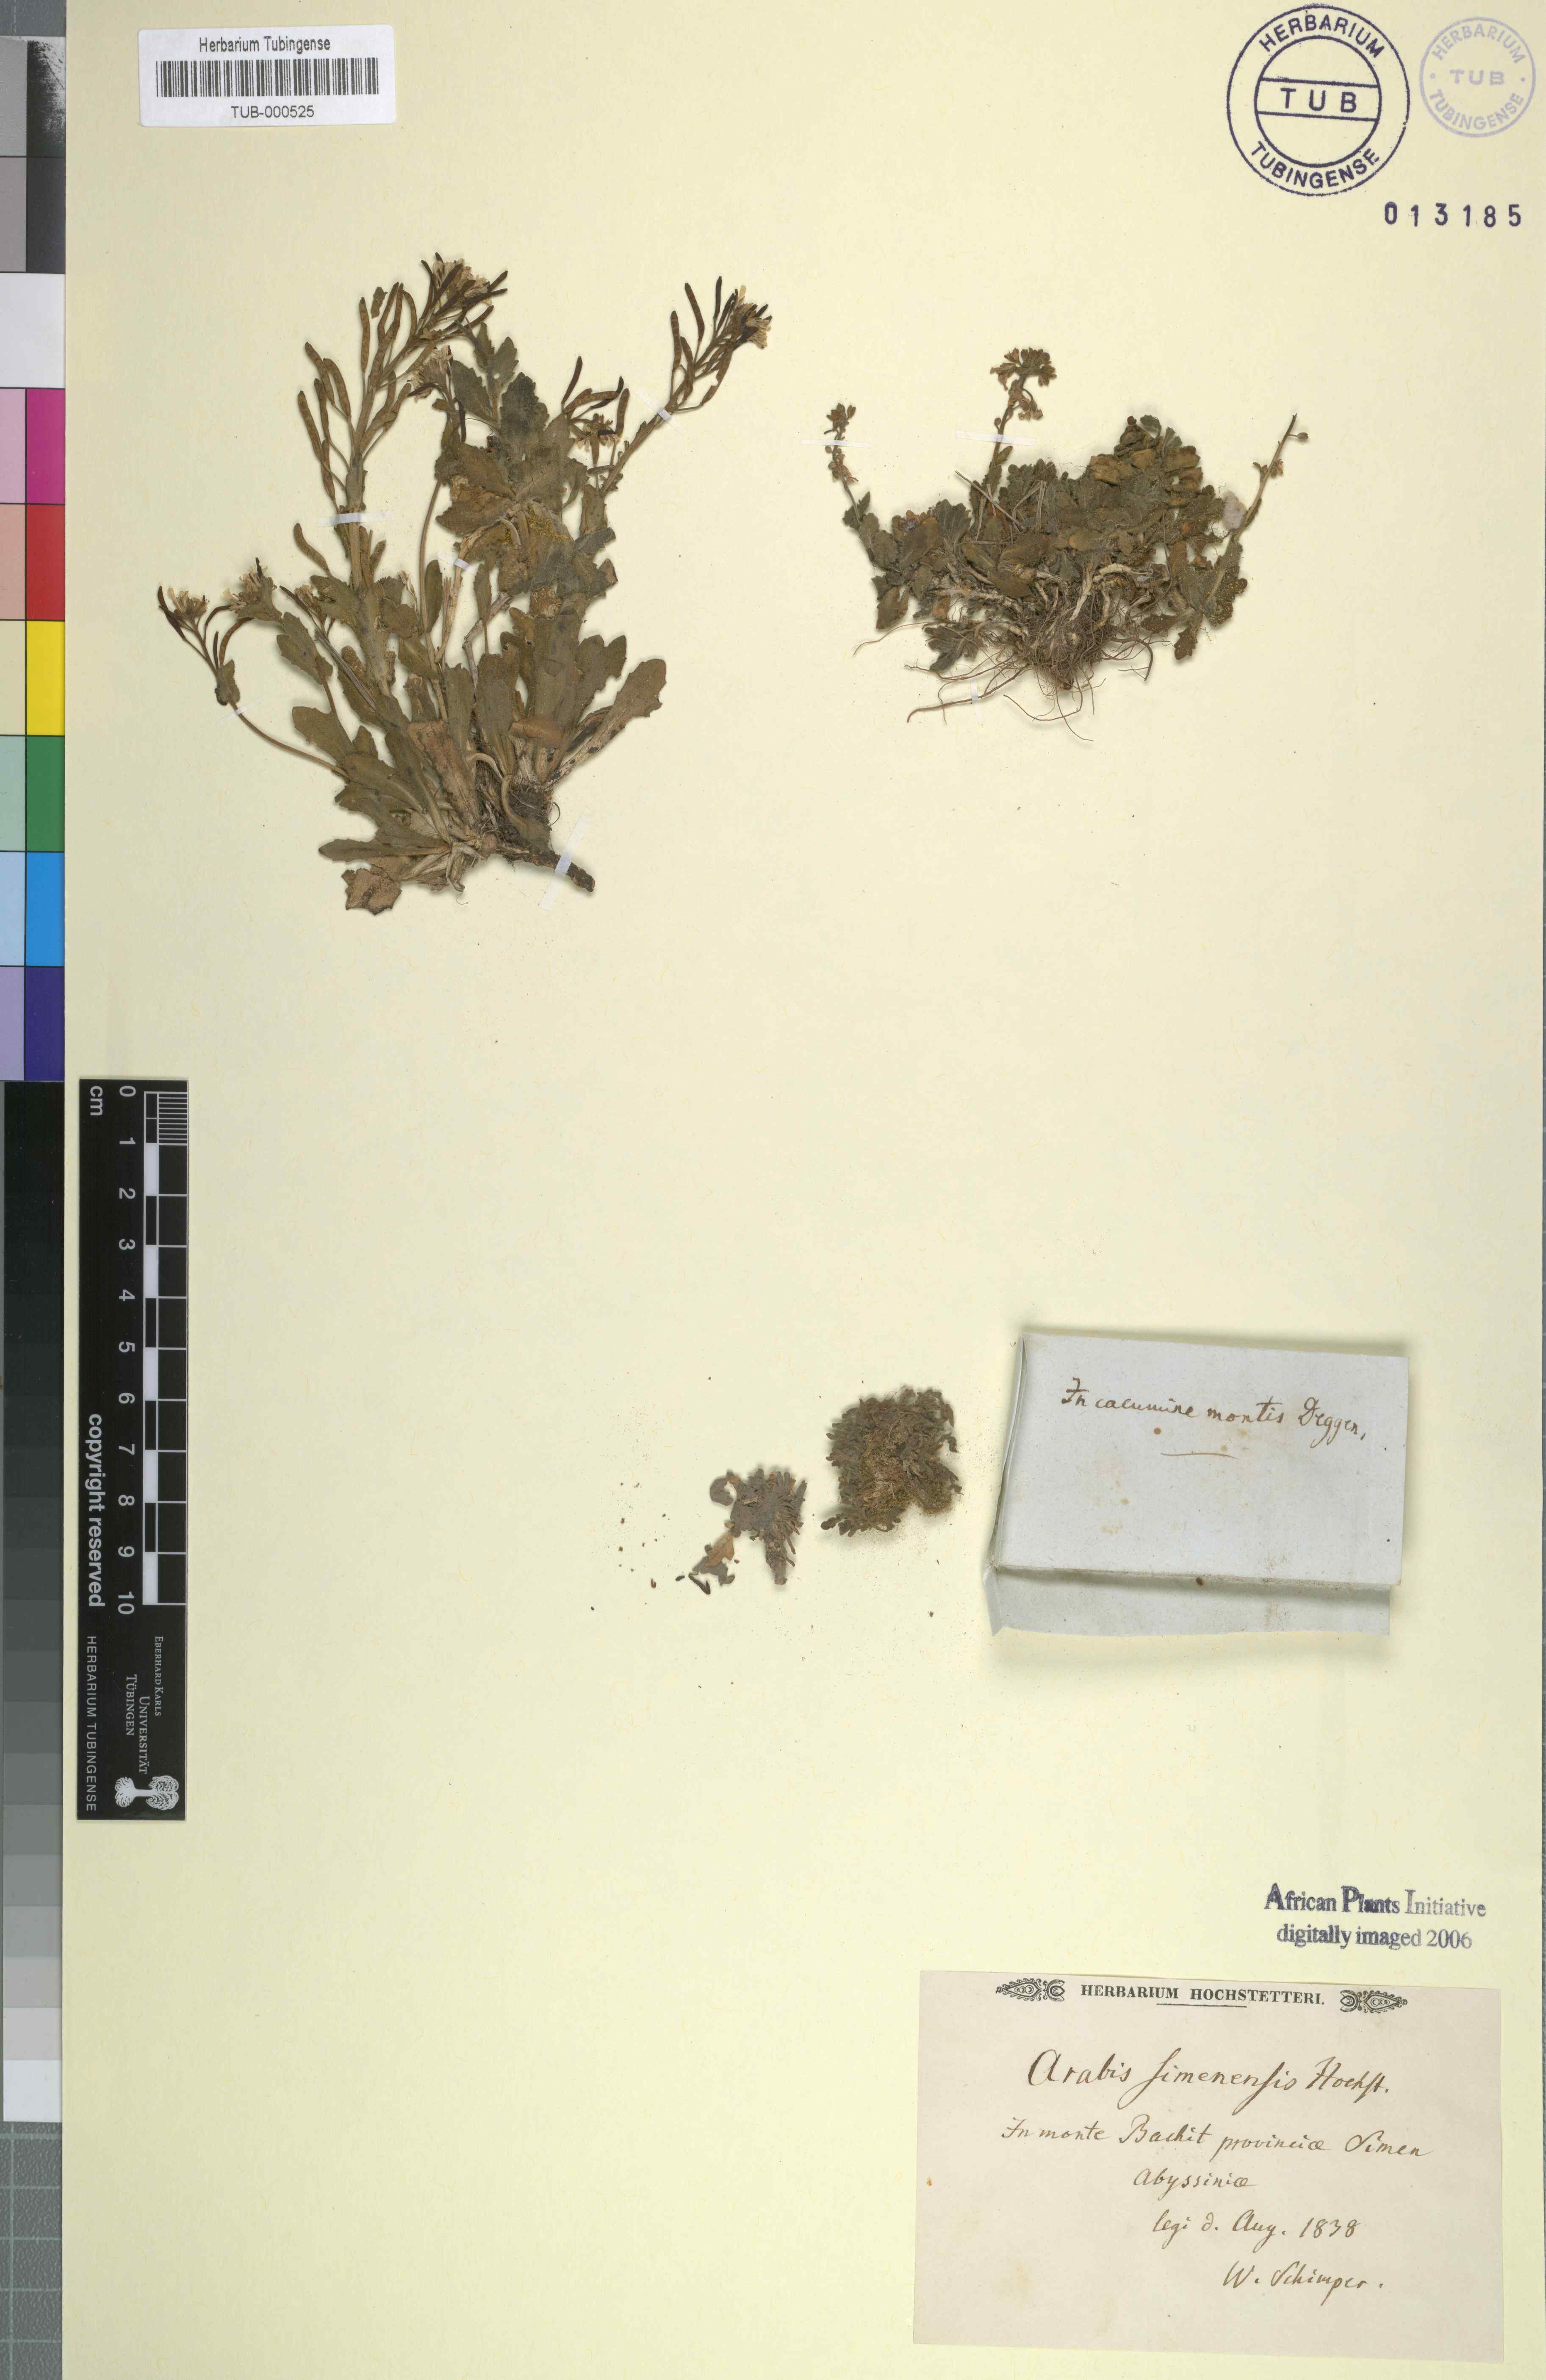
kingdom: Plantae
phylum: Tracheophyta
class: Magnoliopsida
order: Brassicales
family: Brassicaceae
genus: Arabis
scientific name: Arabis
